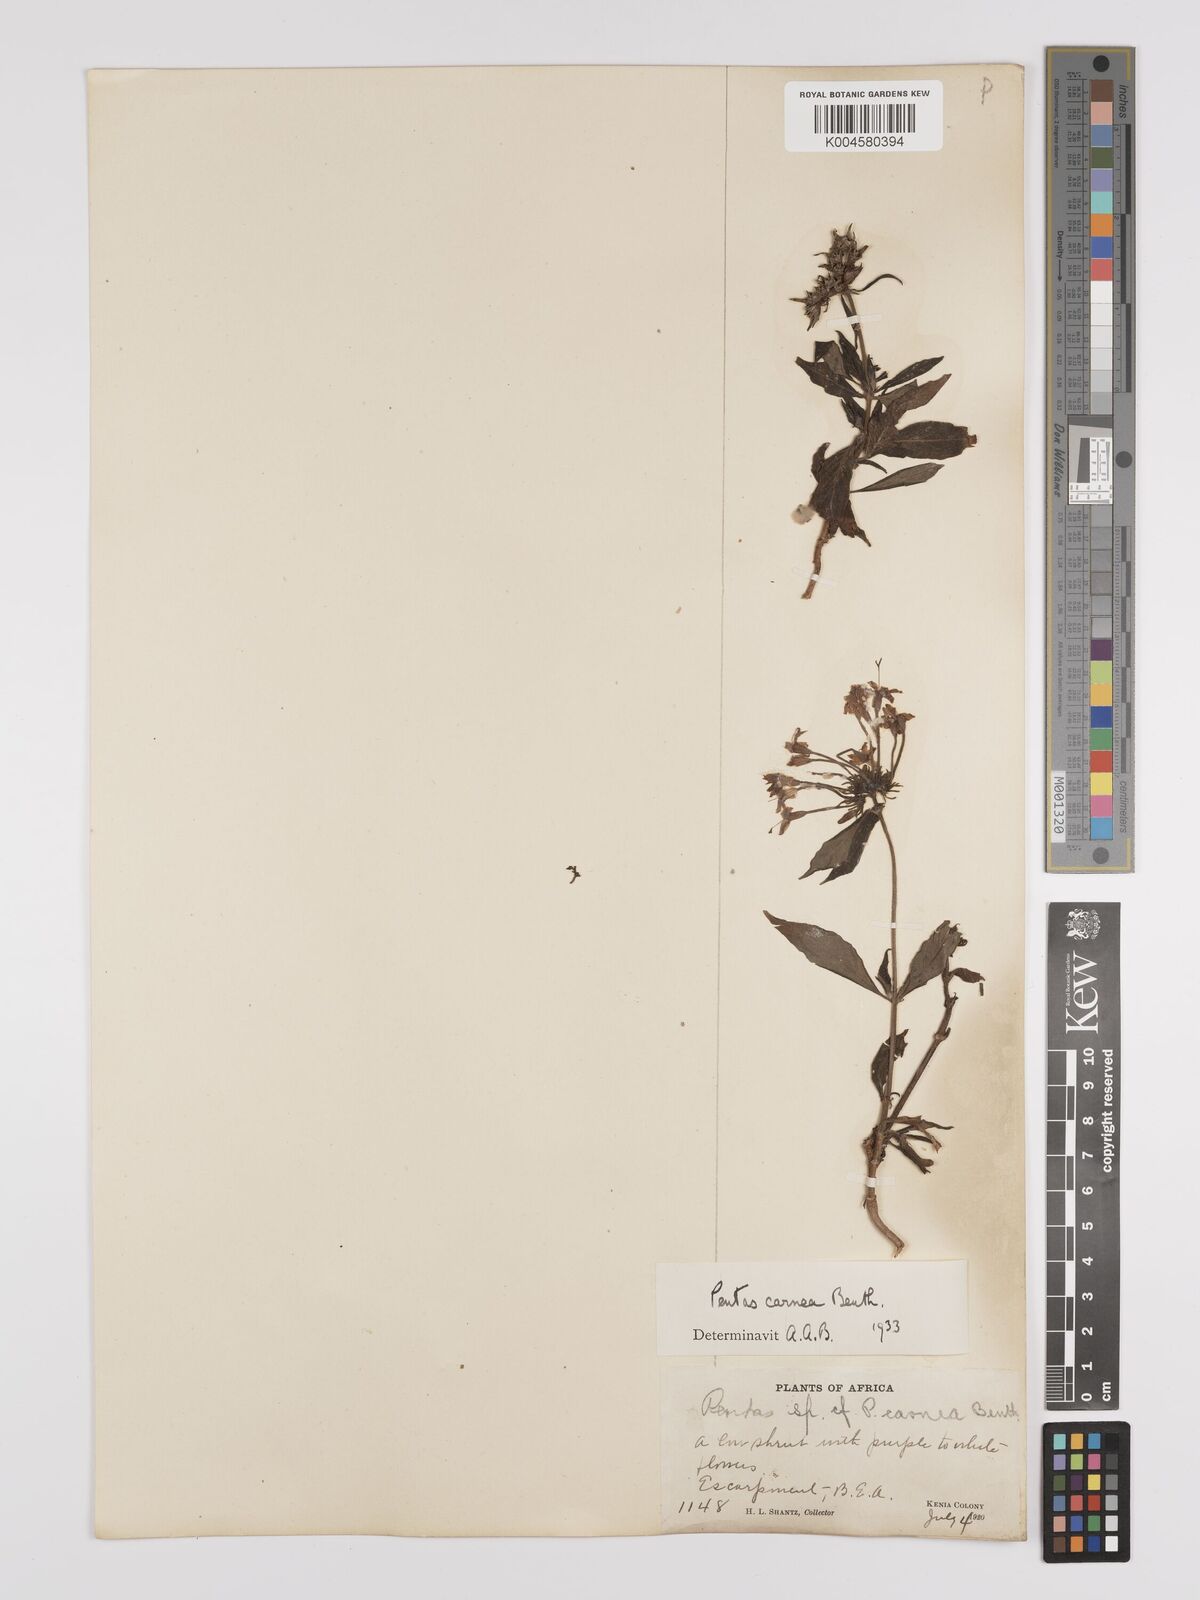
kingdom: Plantae
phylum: Tracheophyta
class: Magnoliopsida
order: Gentianales
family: Rubiaceae
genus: Pentas
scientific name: Pentas
